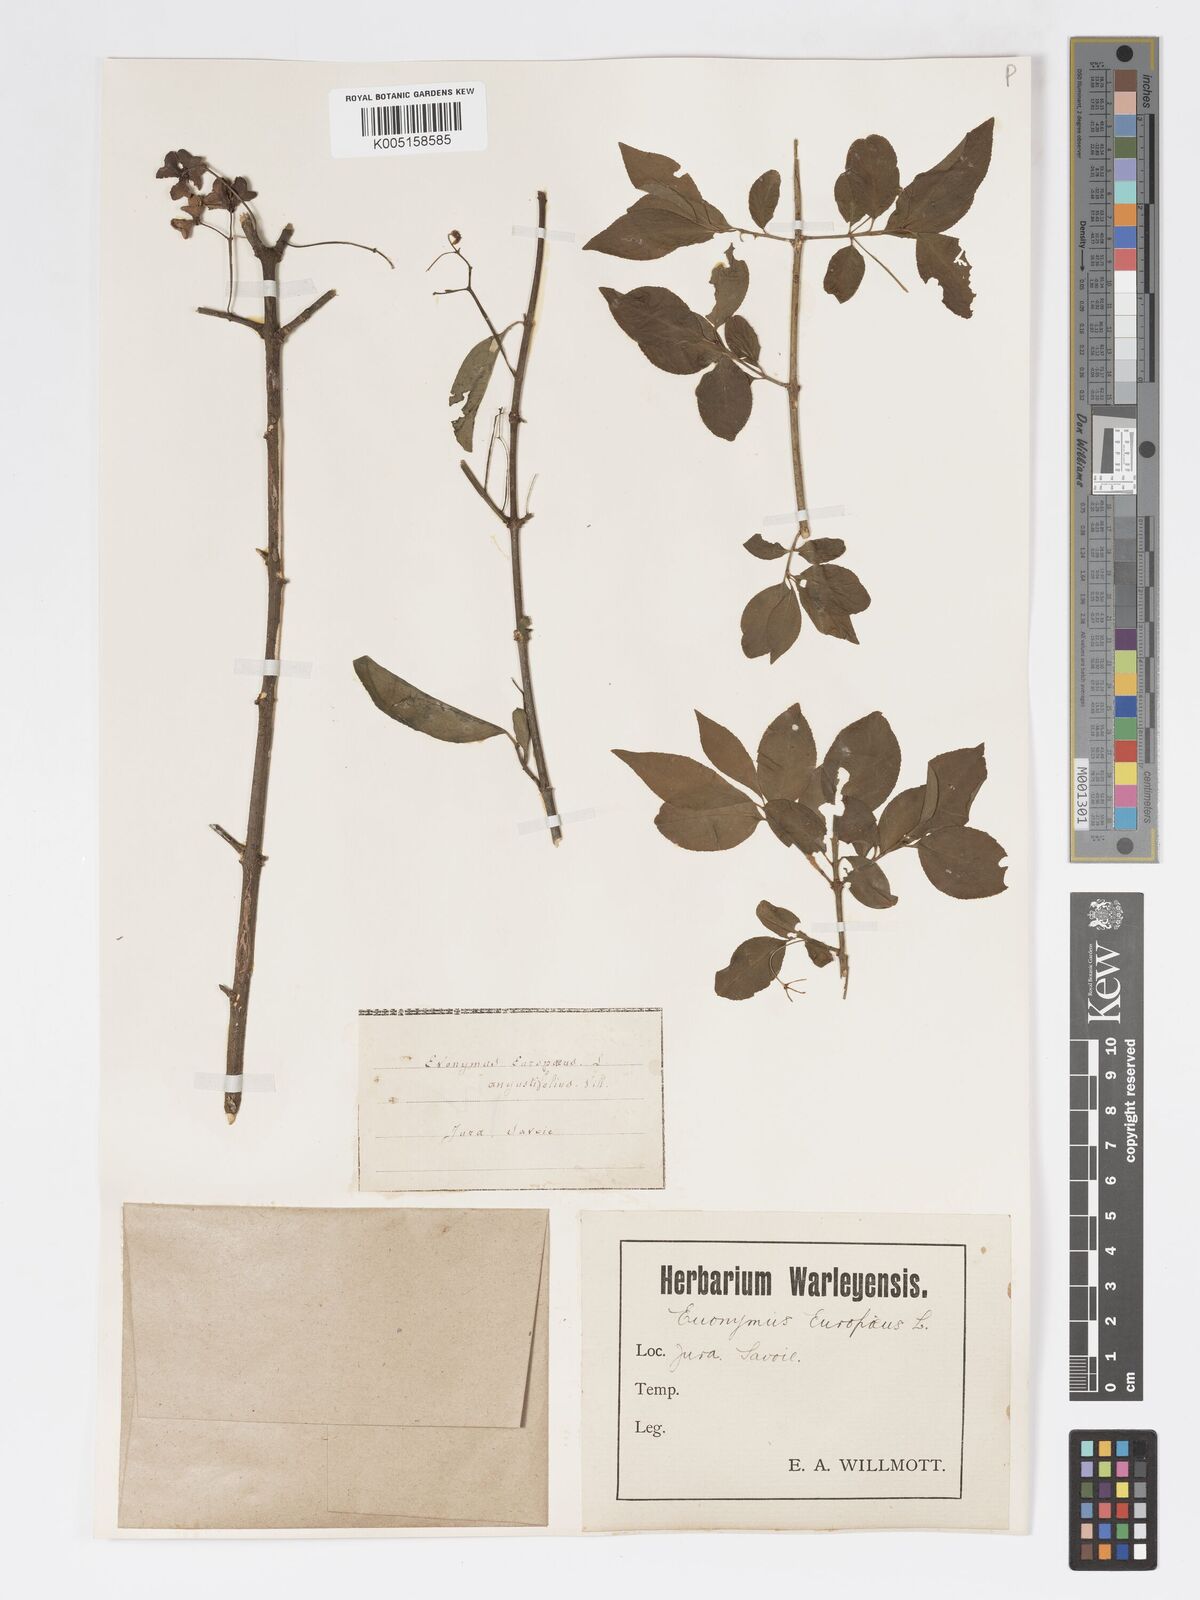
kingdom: Plantae
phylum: Tracheophyta
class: Magnoliopsida
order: Celastrales
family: Celastraceae
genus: Euonymus
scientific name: Euonymus europaeus
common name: Spindle
